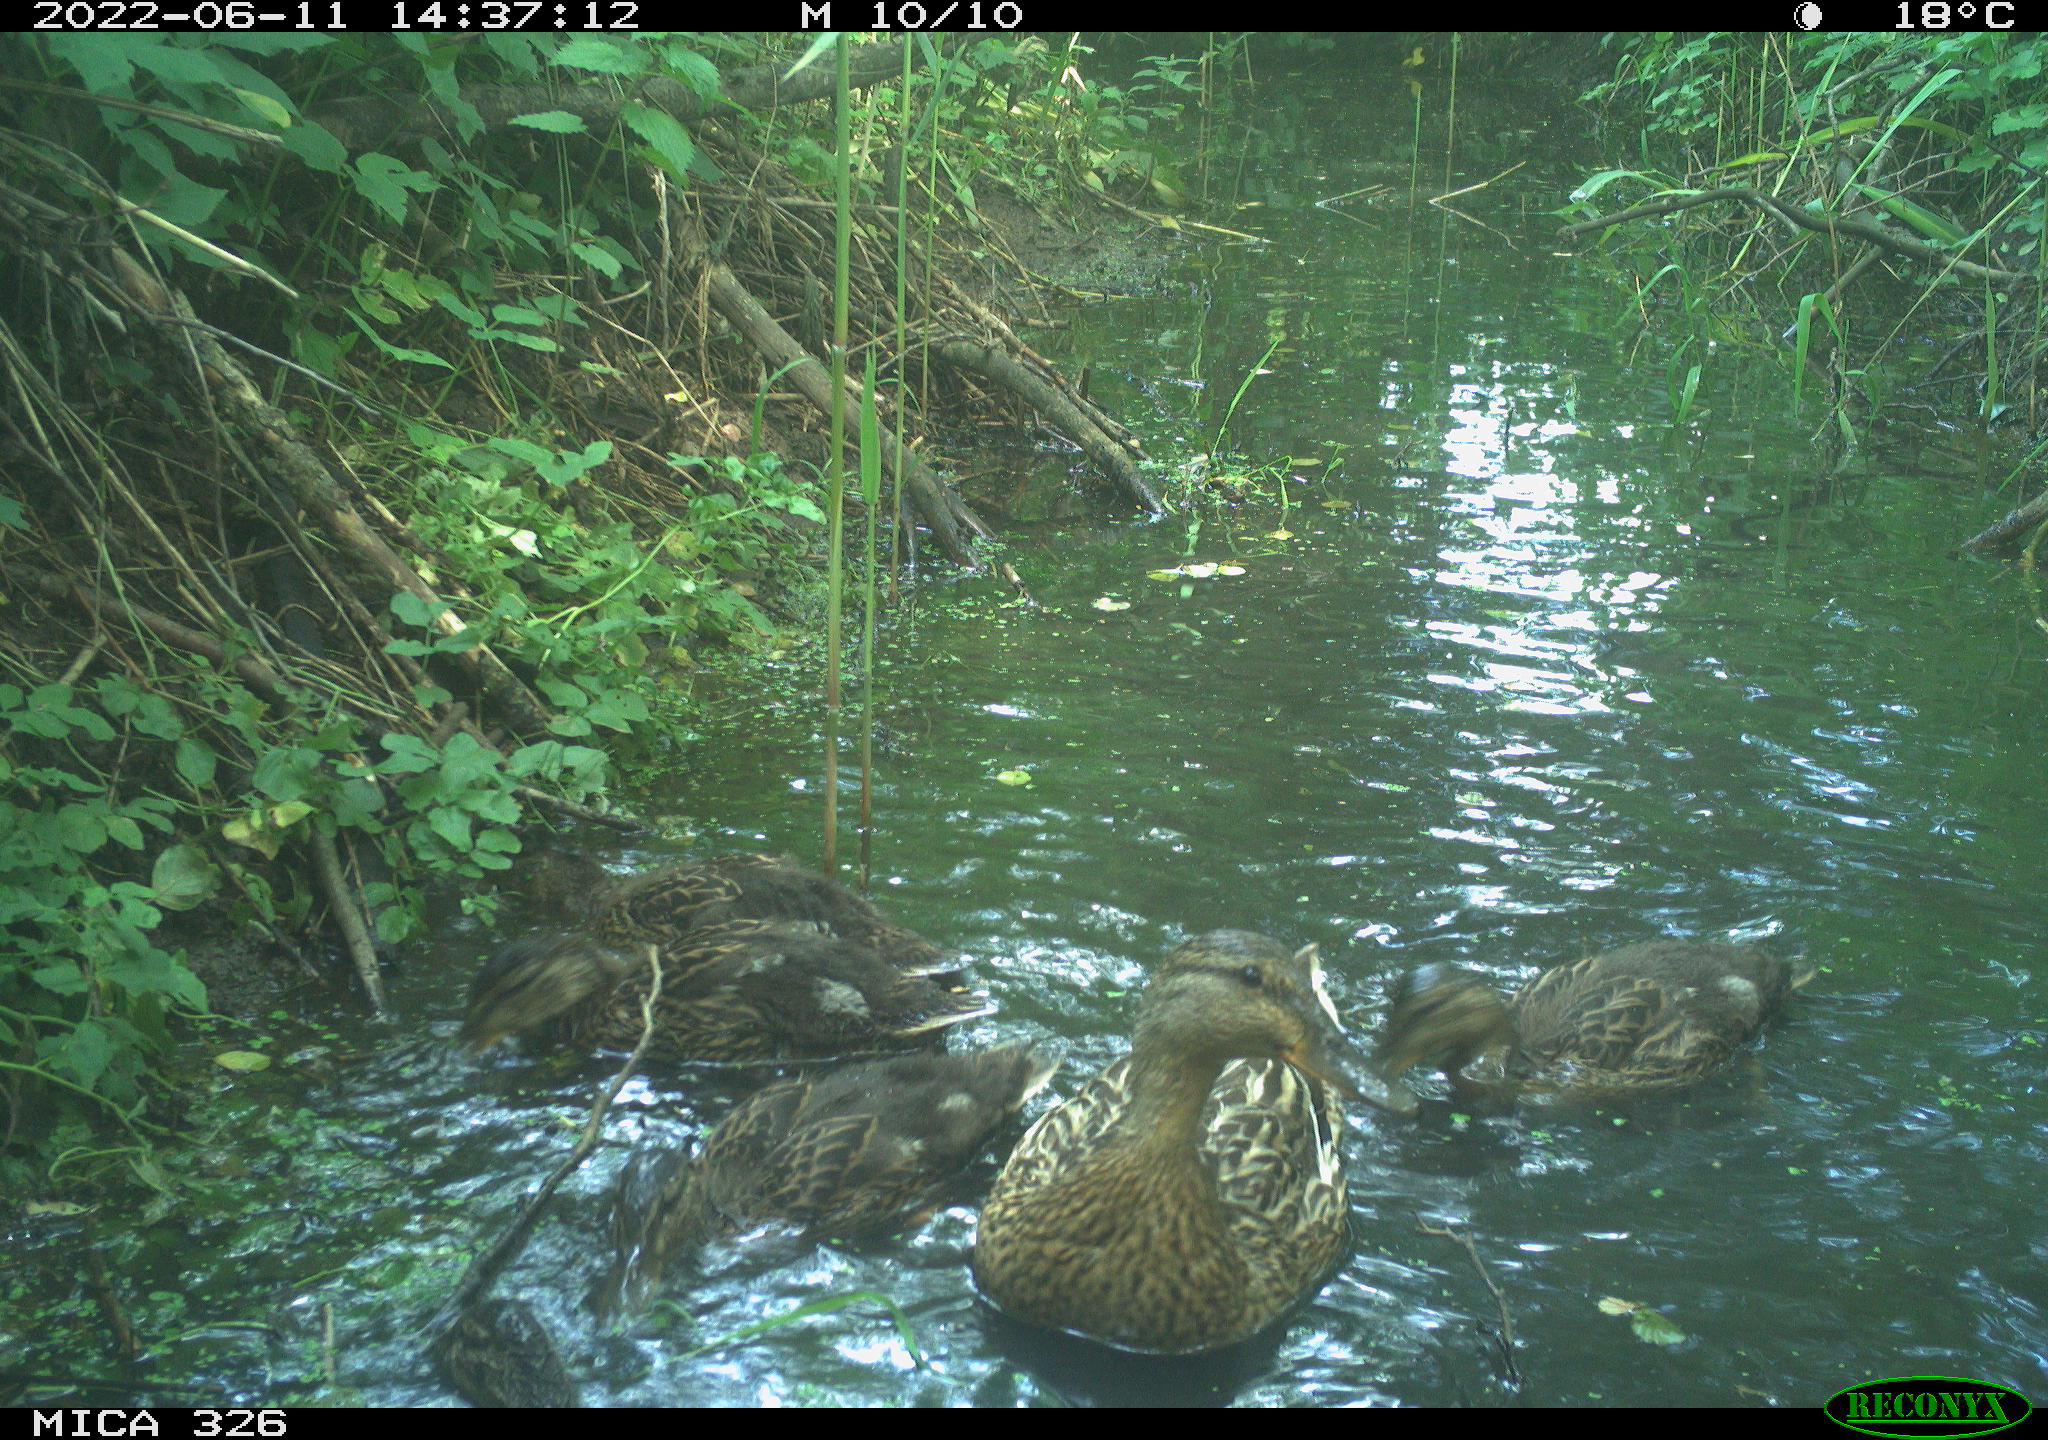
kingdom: Animalia
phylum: Chordata
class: Aves
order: Anseriformes
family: Anatidae
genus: Anas
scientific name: Anas platyrhynchos
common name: Mallard
